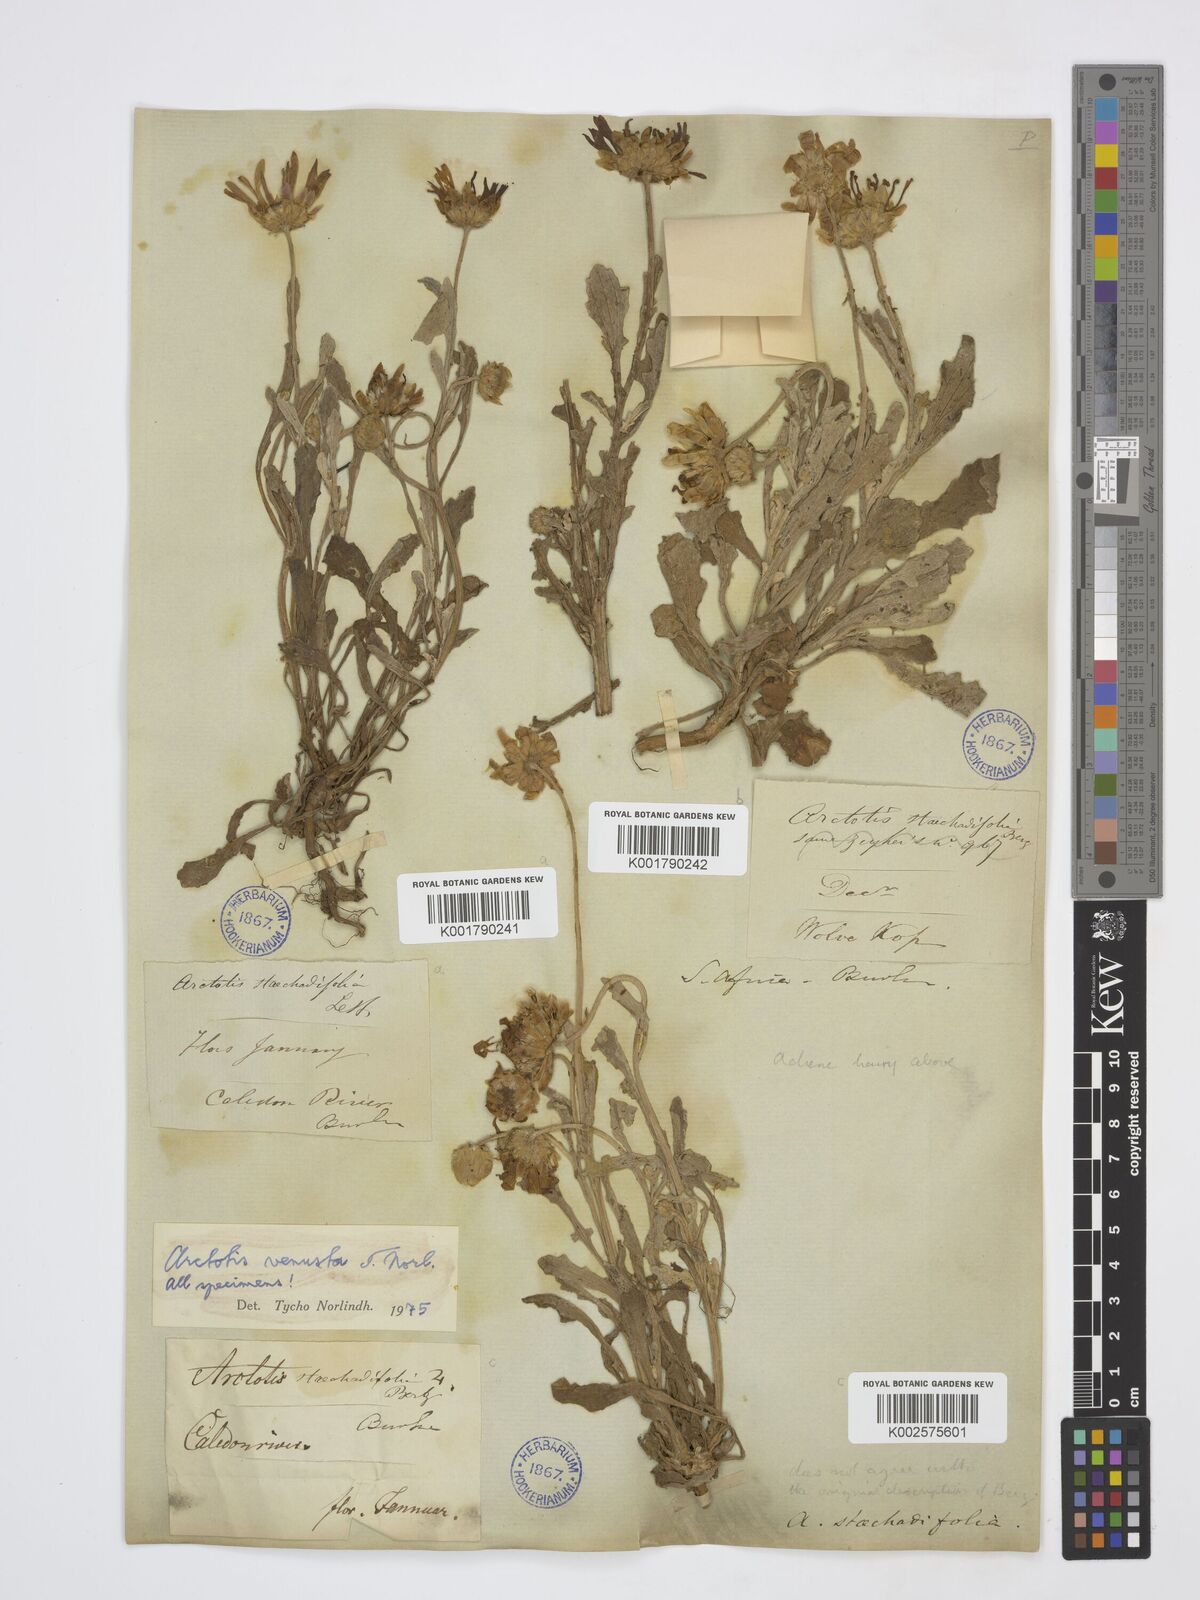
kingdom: Plantae
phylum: Tracheophyta
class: Magnoliopsida
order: Asterales
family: Asteraceae
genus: Arctotis
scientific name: Arctotis venusta
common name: African daisy
